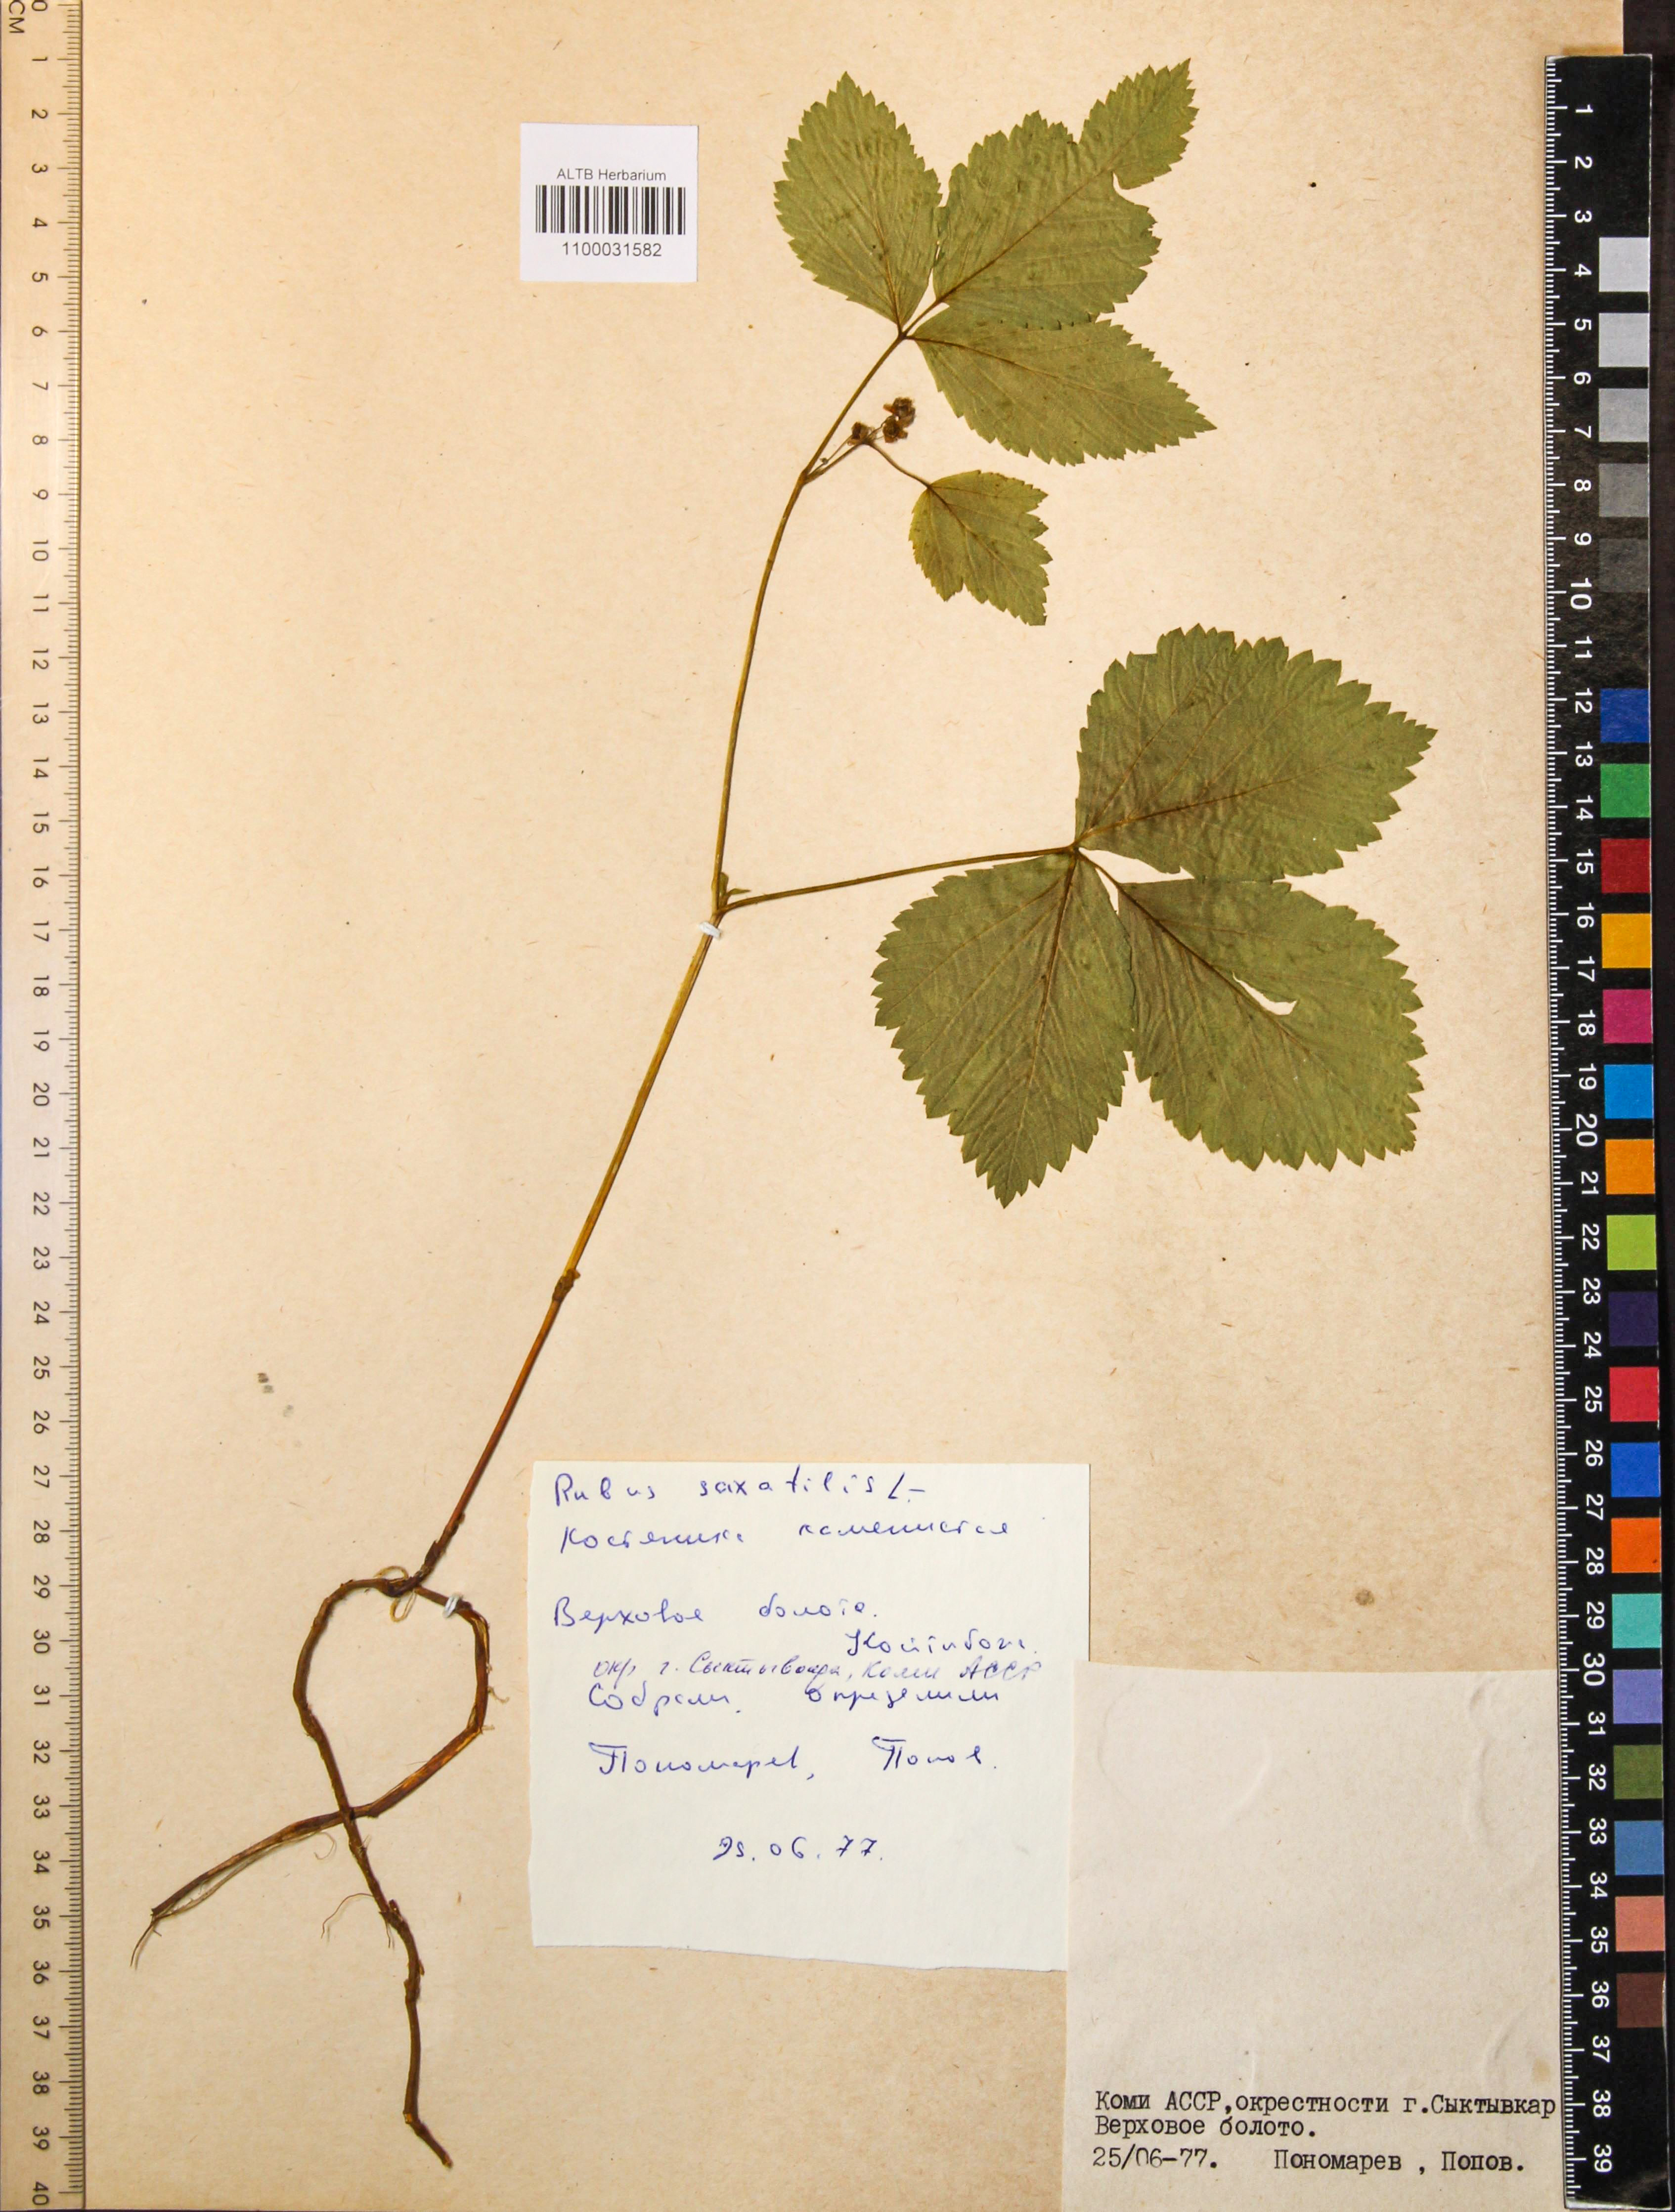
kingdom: Plantae
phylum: Tracheophyta
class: Magnoliopsida
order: Rosales
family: Rosaceae
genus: Rubus
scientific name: Rubus saxatilis
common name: Stone bramble
